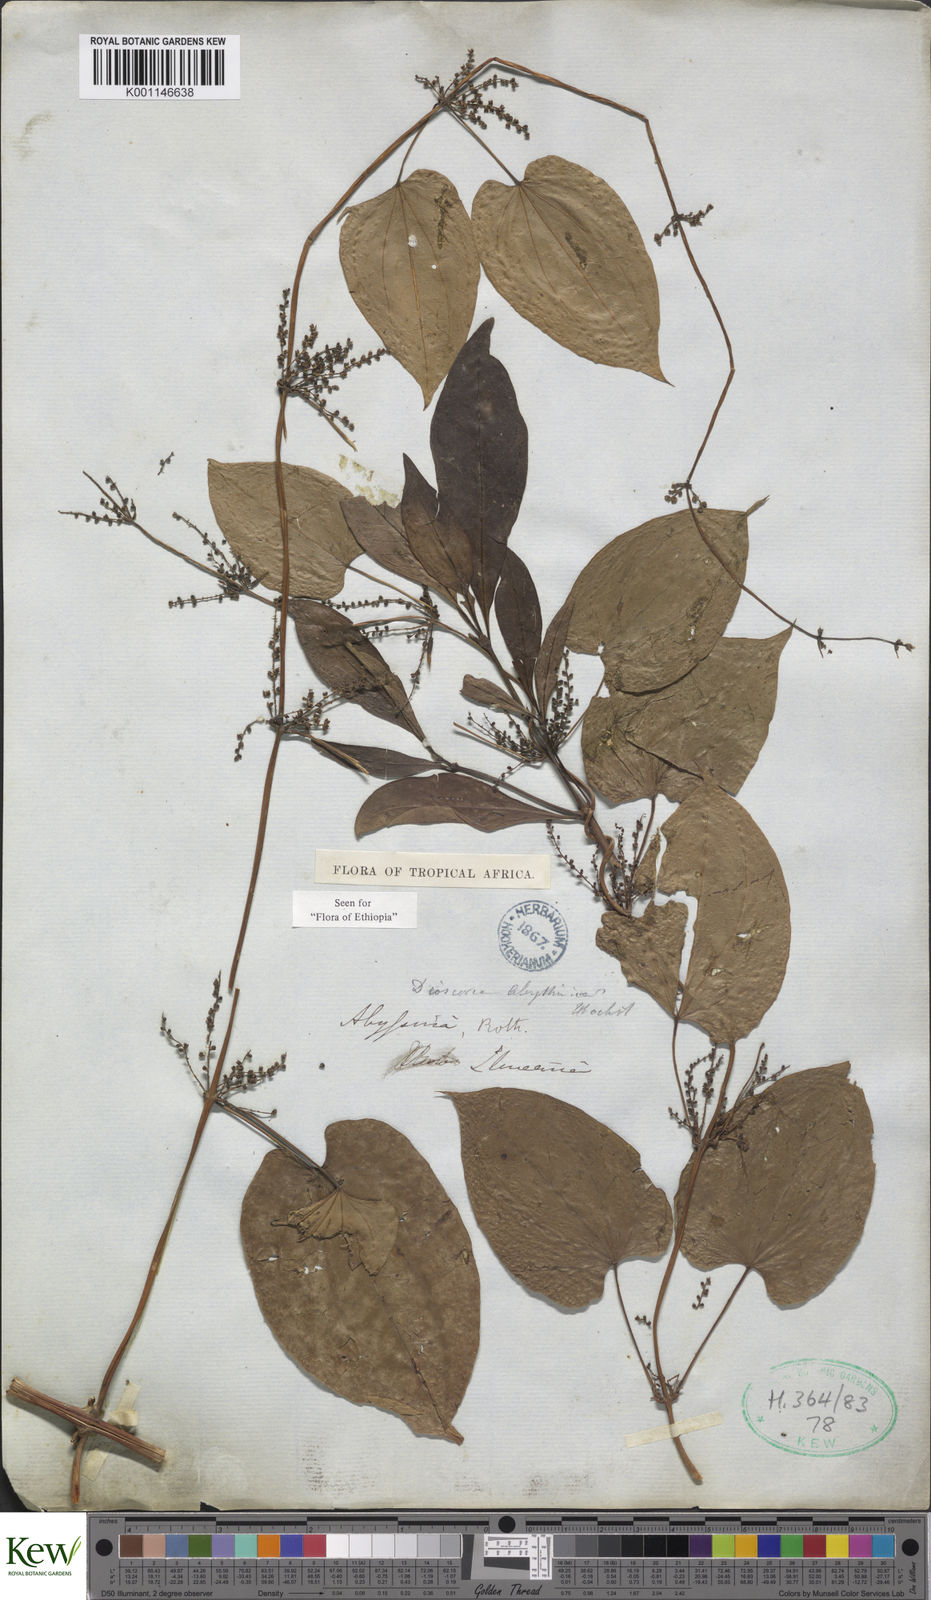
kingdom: Plantae
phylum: Tracheophyta
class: Liliopsida
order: Dioscoreales
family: Dioscoreaceae
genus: Dioscorea
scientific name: Dioscorea abyssinica
